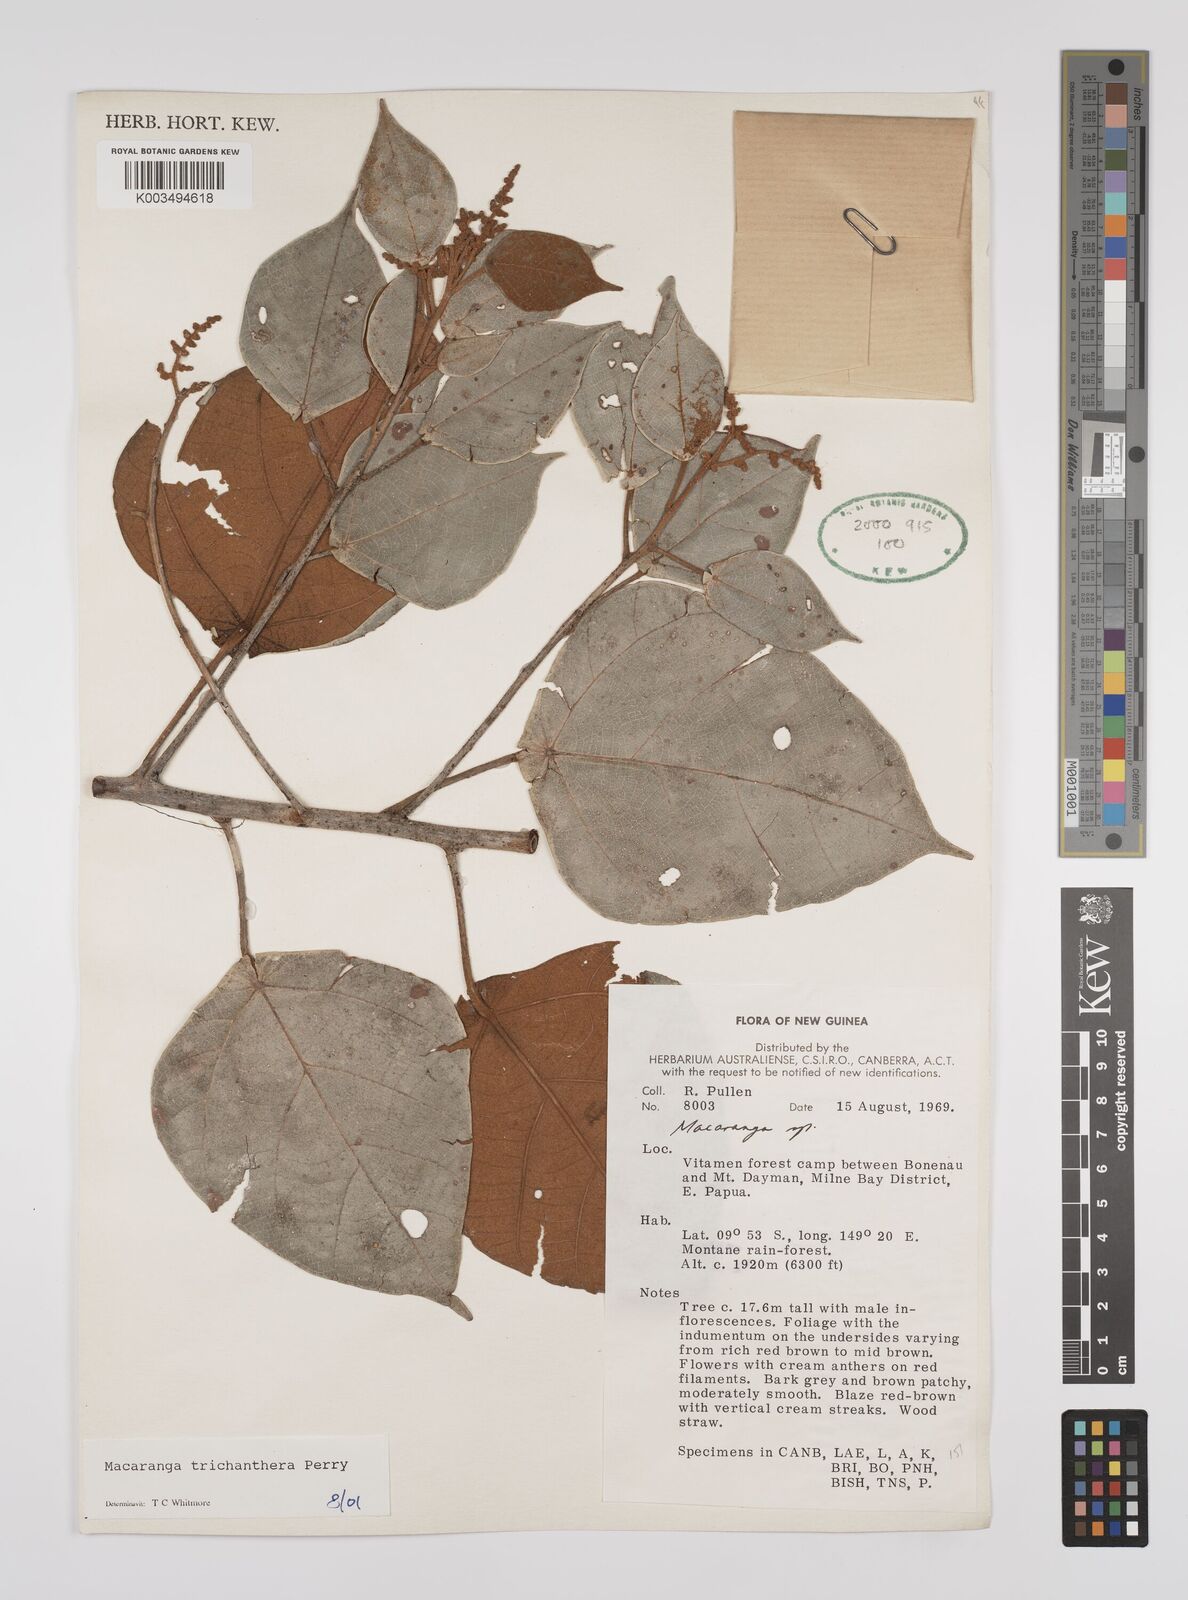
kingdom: Plantae
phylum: Tracheophyta
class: Magnoliopsida
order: Malpighiales
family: Euphorbiaceae
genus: Macaranga
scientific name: Macaranga trichanthera
